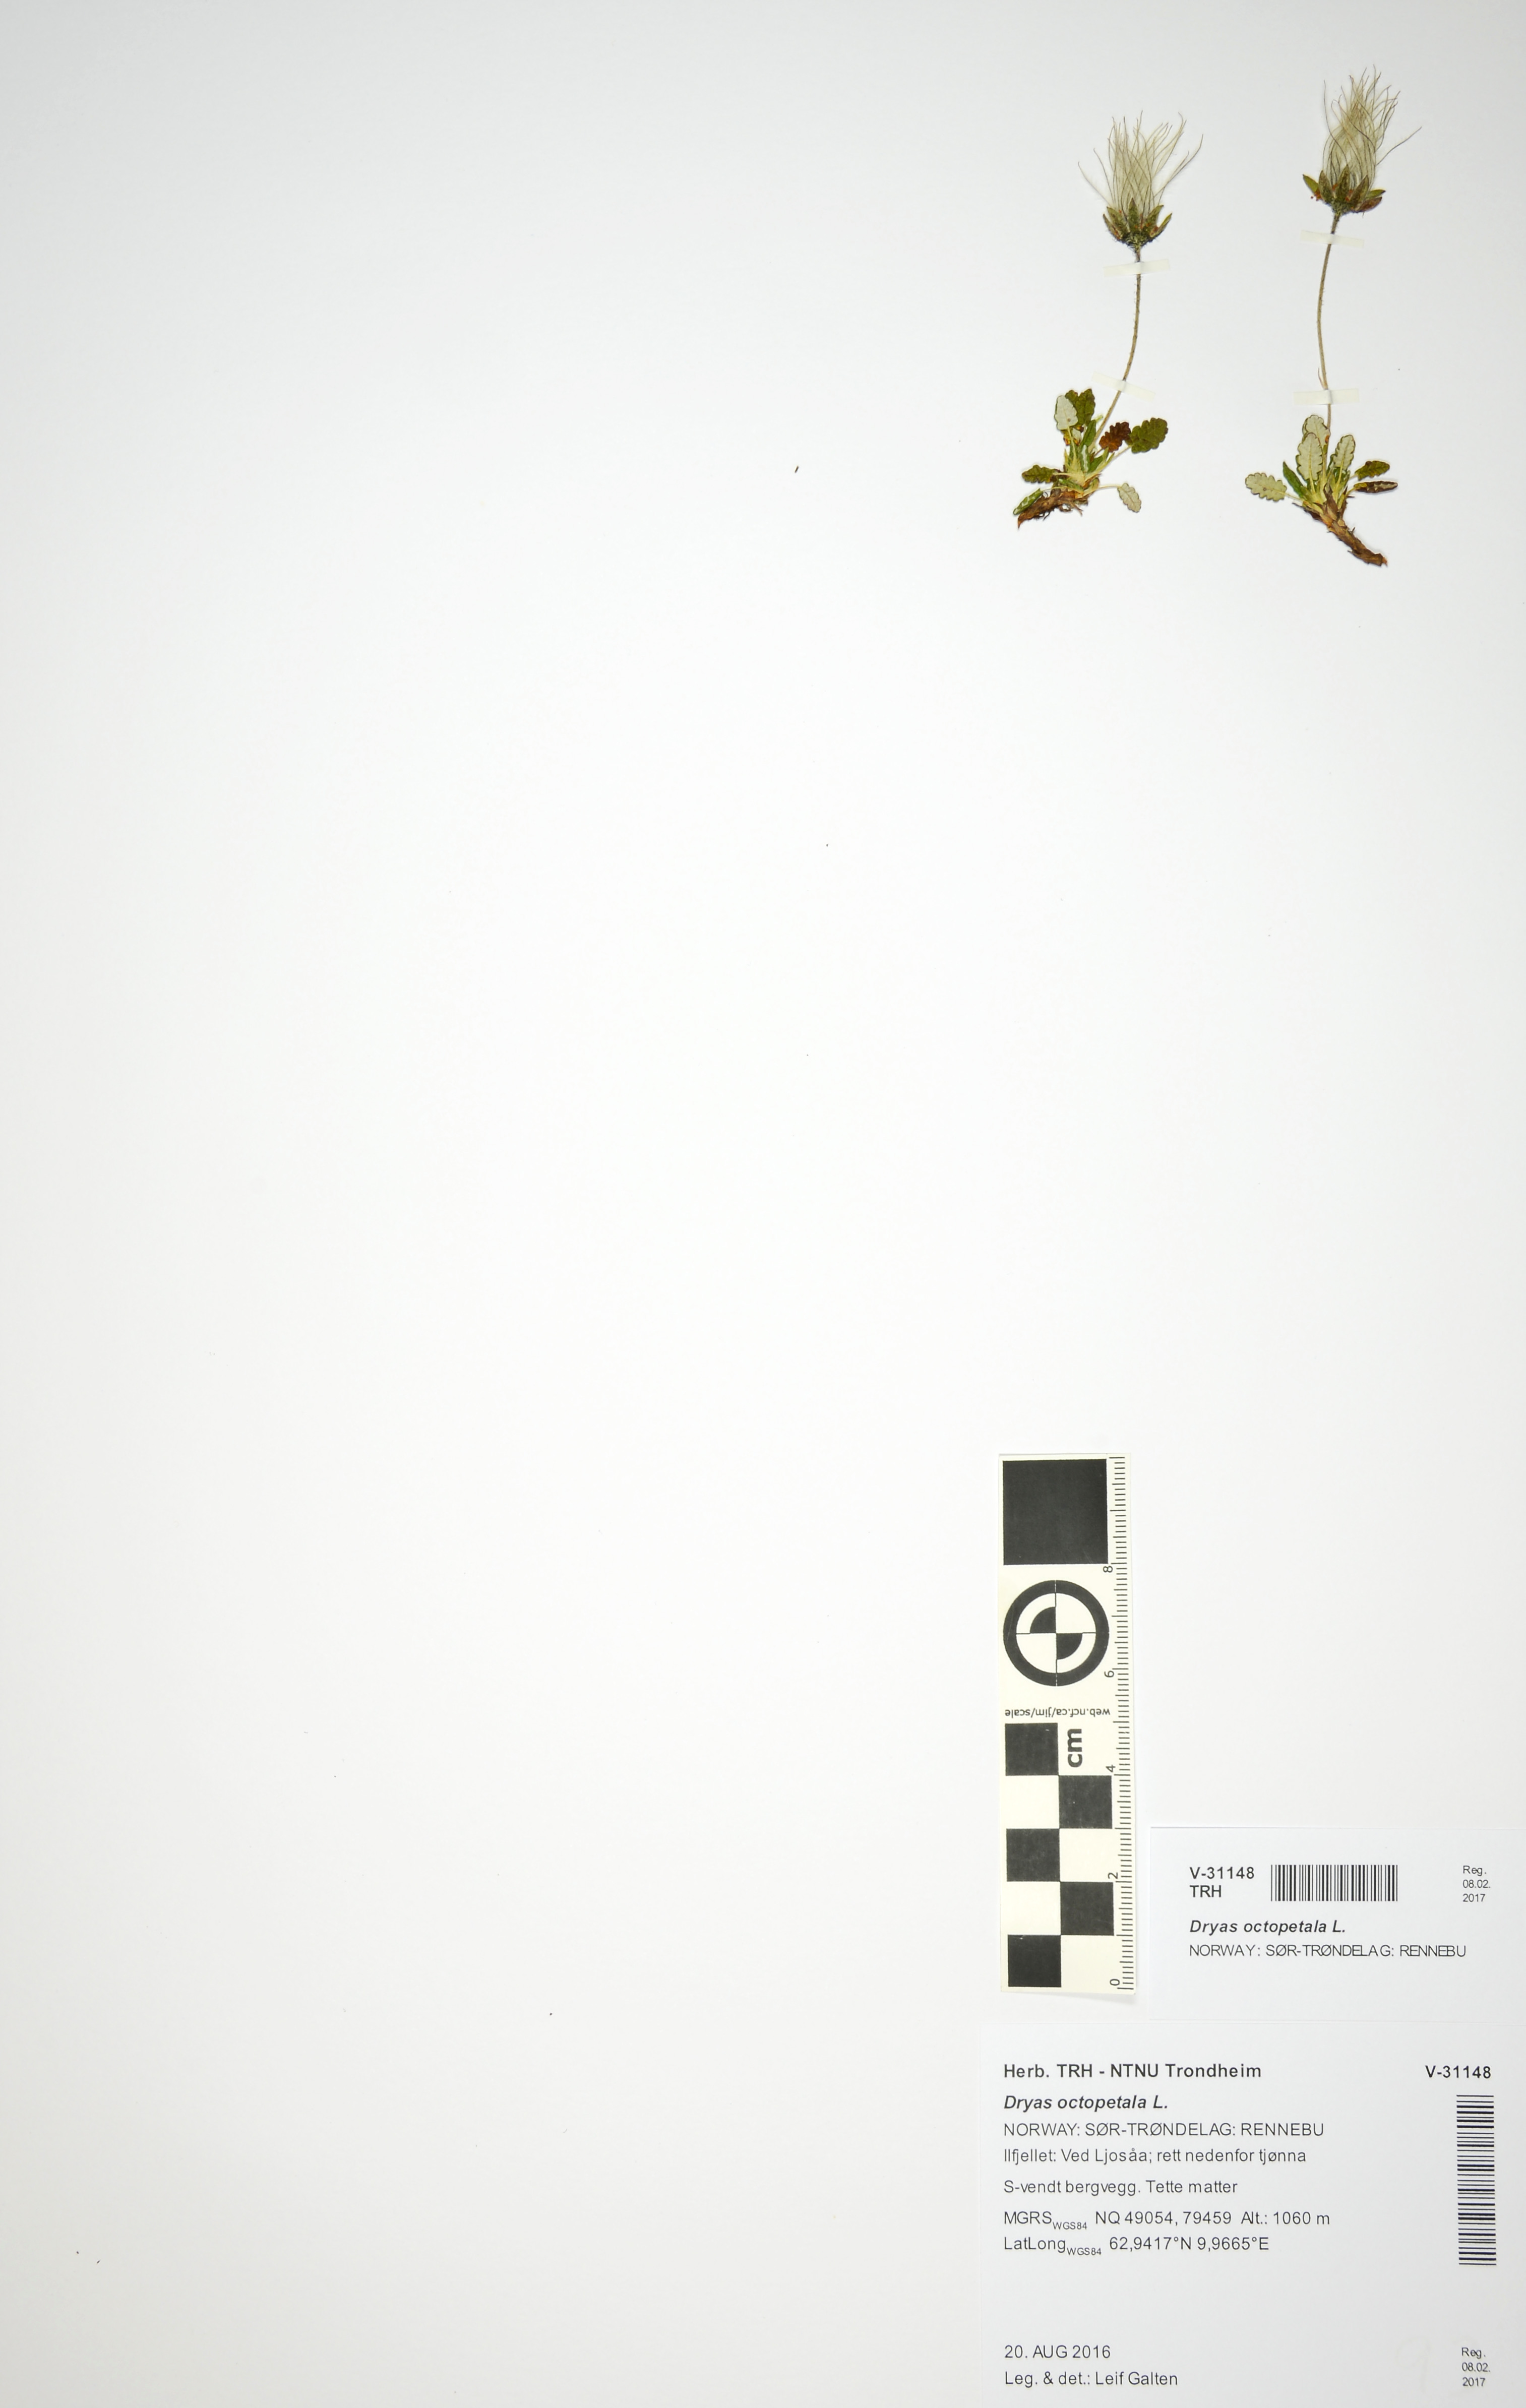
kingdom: Plantae
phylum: Tracheophyta
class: Magnoliopsida
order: Rosales
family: Rosaceae
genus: Dryas
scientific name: Dryas octopetala
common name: Eight-petal mountain-avens
